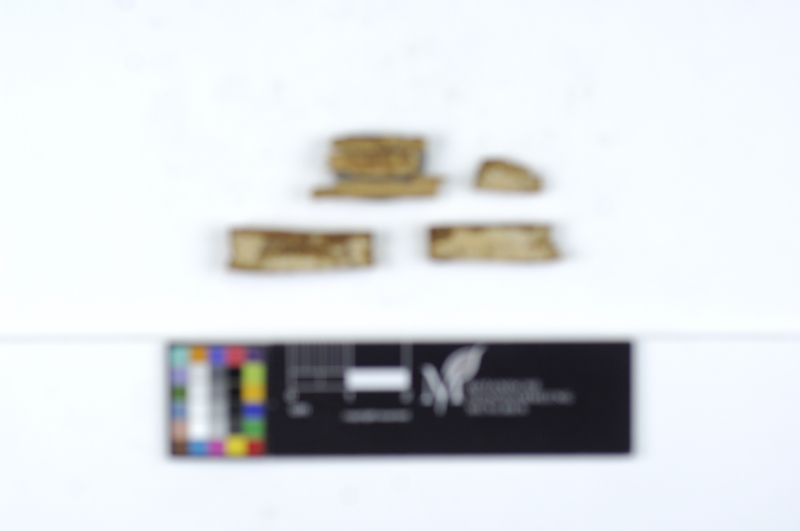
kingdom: Fungi
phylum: Basidiomycota
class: Agaricomycetes
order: Amylocorticiales
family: Amylocorticiaceae
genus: Ceraceomyces
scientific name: Ceraceomyces eludens
